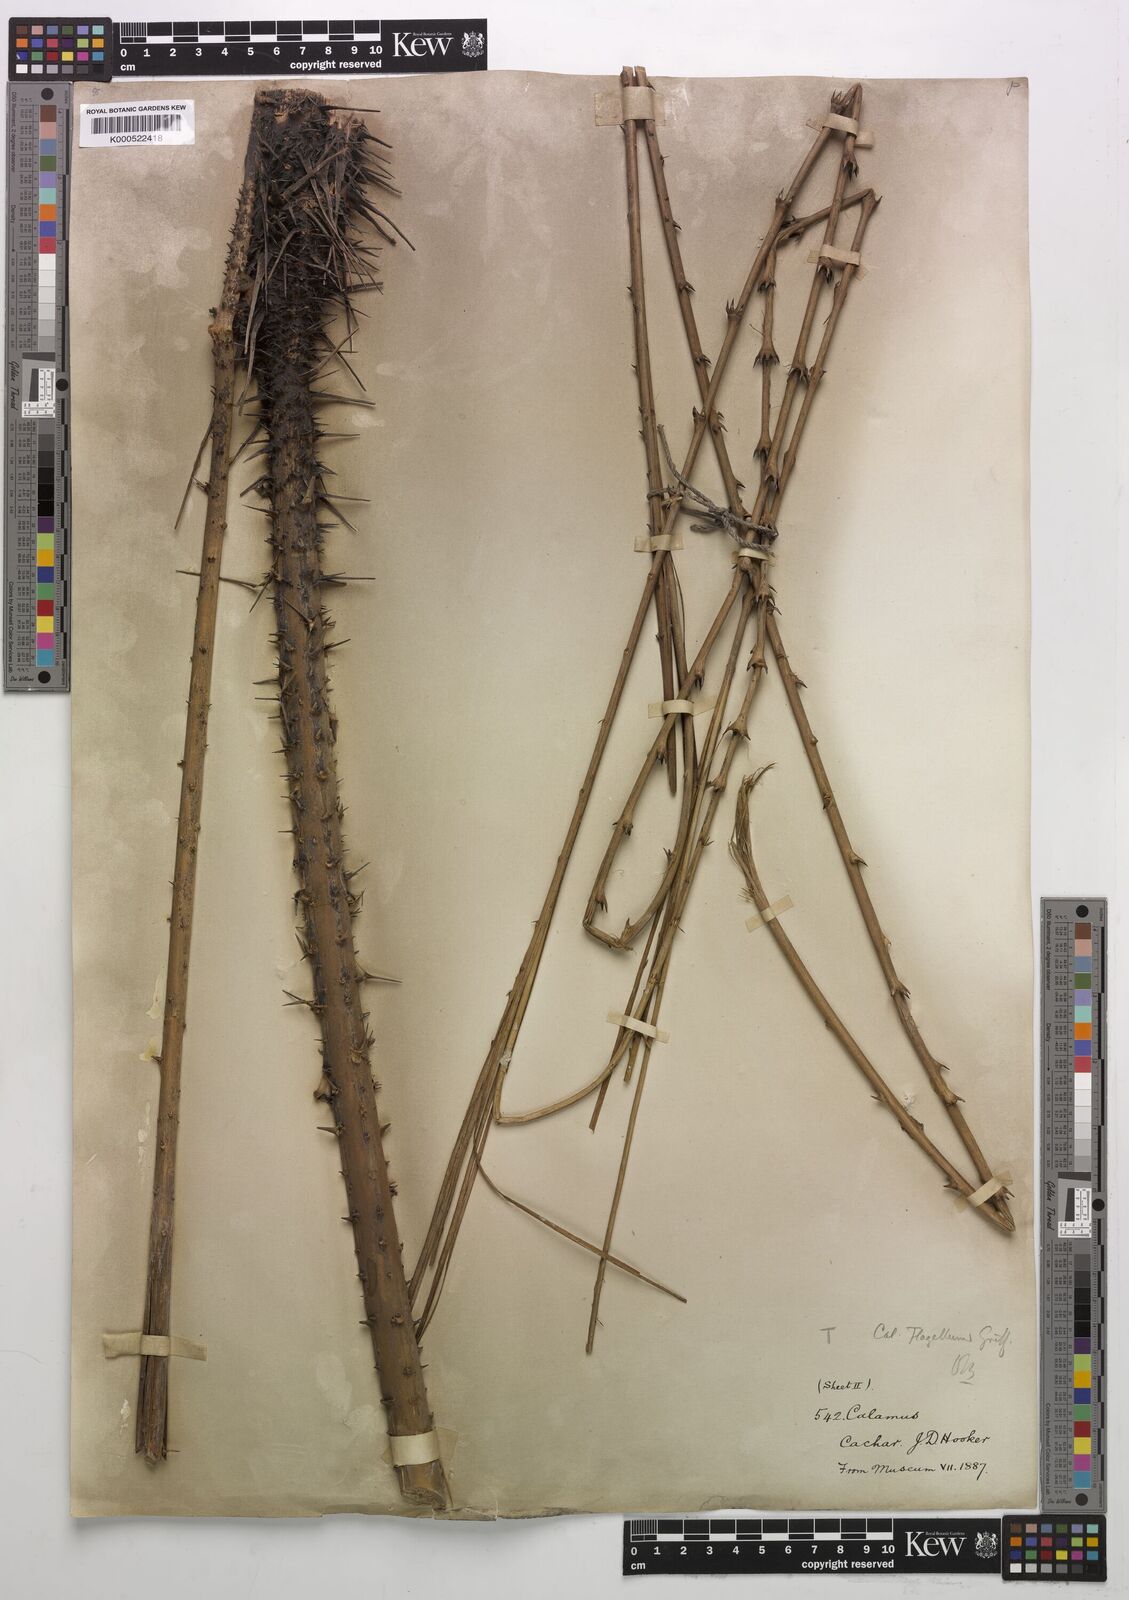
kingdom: Plantae
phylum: Tracheophyta
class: Liliopsida
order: Arecales
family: Arecaceae
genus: Calamus
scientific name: Calamus
